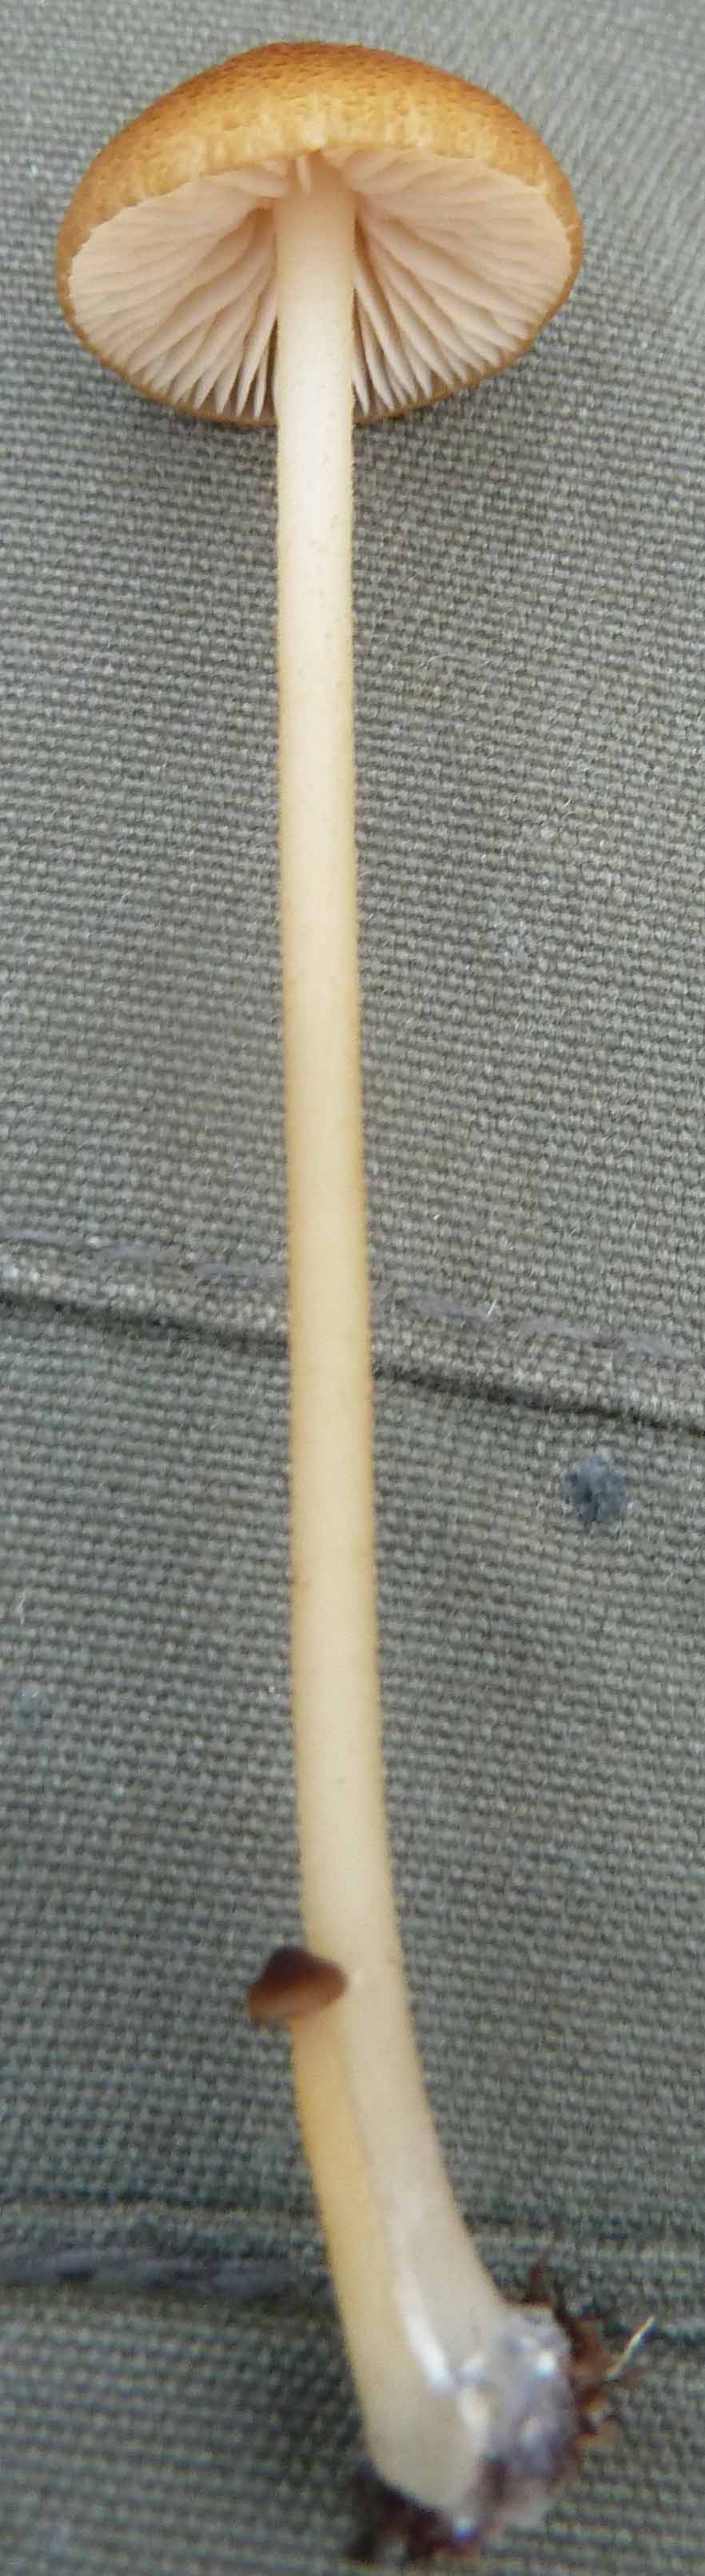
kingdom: Fungi
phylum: Basidiomycota
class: Agaricomycetes
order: Agaricales
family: Entolomataceae
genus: Entoloma
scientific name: Entoloma formosum
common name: brungul rødblad
